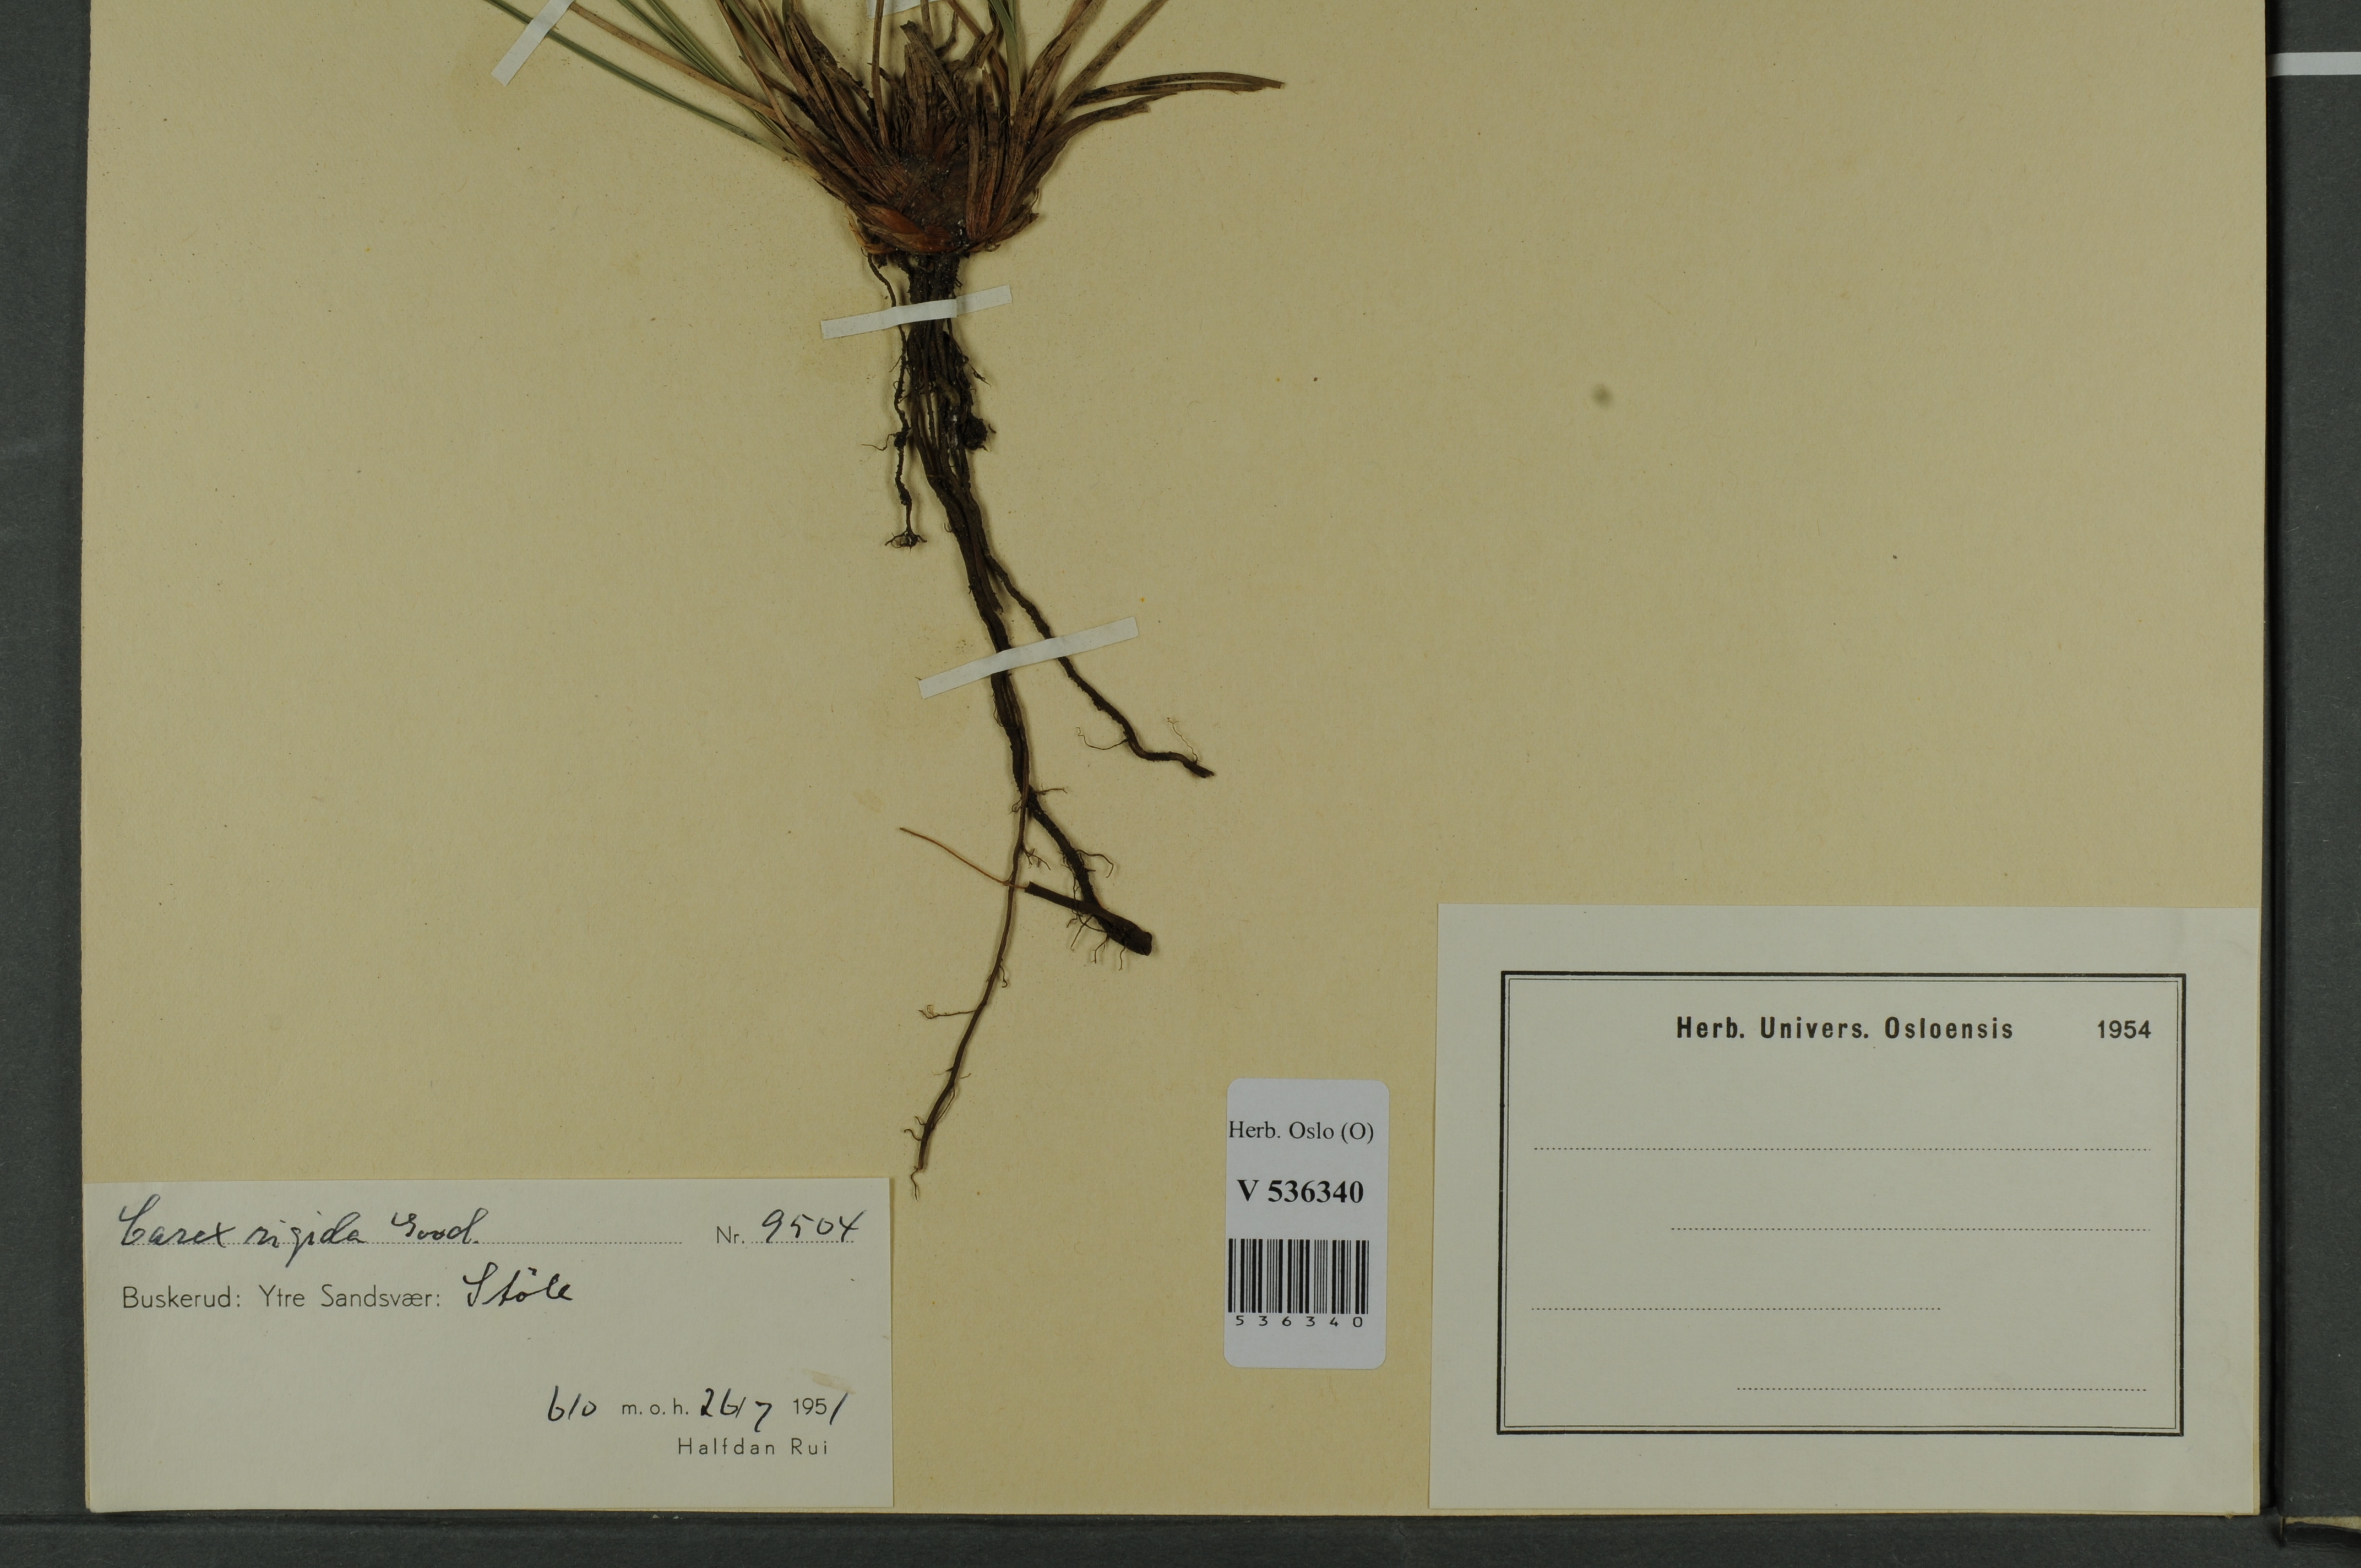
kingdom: Plantae
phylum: Tracheophyta
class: Liliopsida
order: Poales
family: Cyperaceae
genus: Carex
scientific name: Carex dacica
